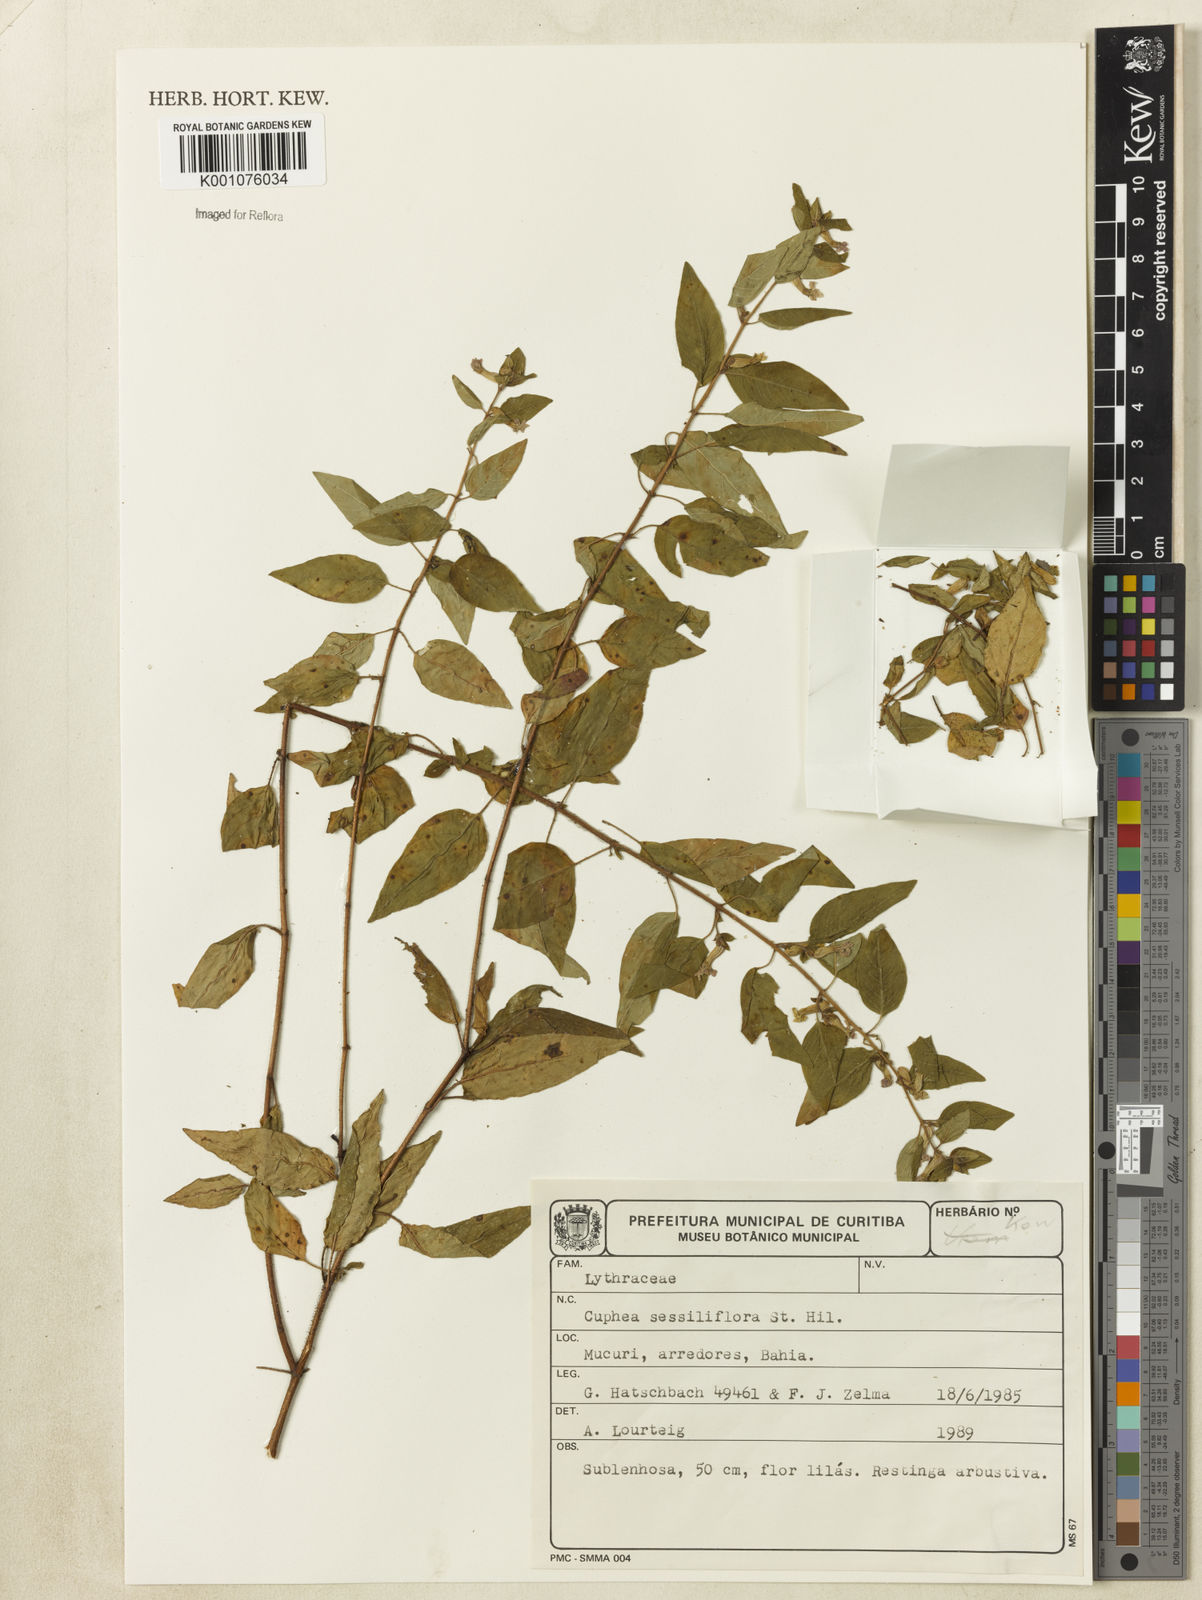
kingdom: Plantae
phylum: Tracheophyta
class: Magnoliopsida
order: Myrtales
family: Lythraceae
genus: Cuphea
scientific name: Cuphea
